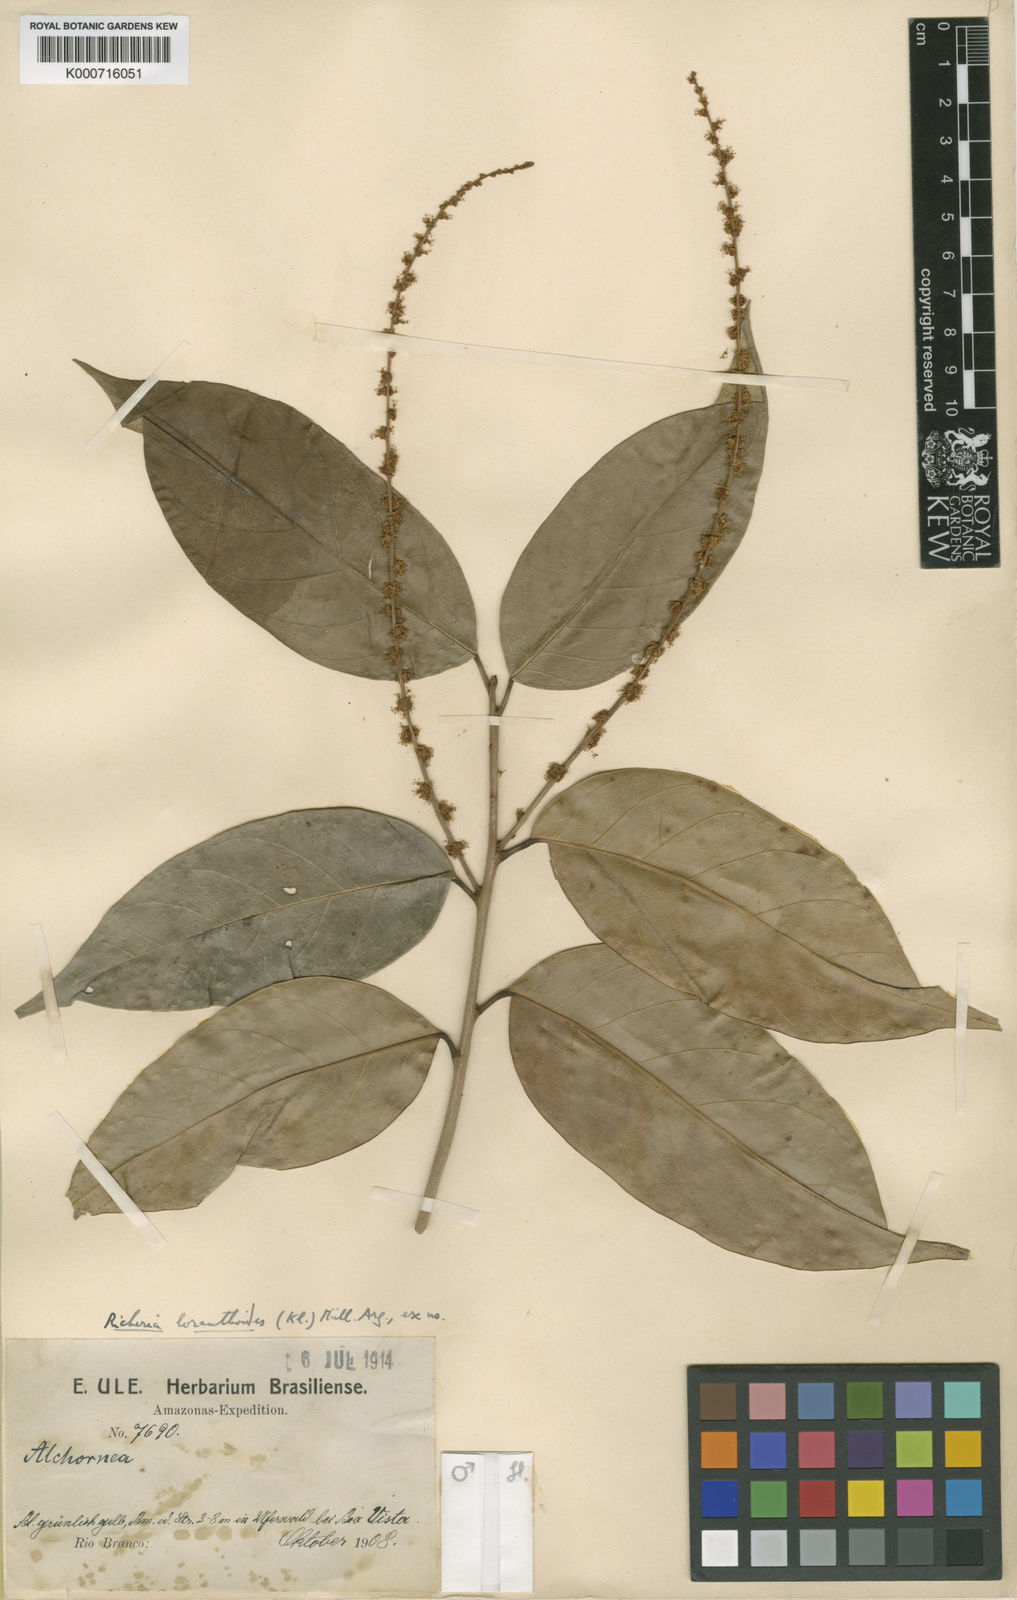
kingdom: Plantae
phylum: Tracheophyta
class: Magnoliopsida
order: Malpighiales
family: Picrodendraceae
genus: Podocalyx
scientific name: Podocalyx loranthoides
